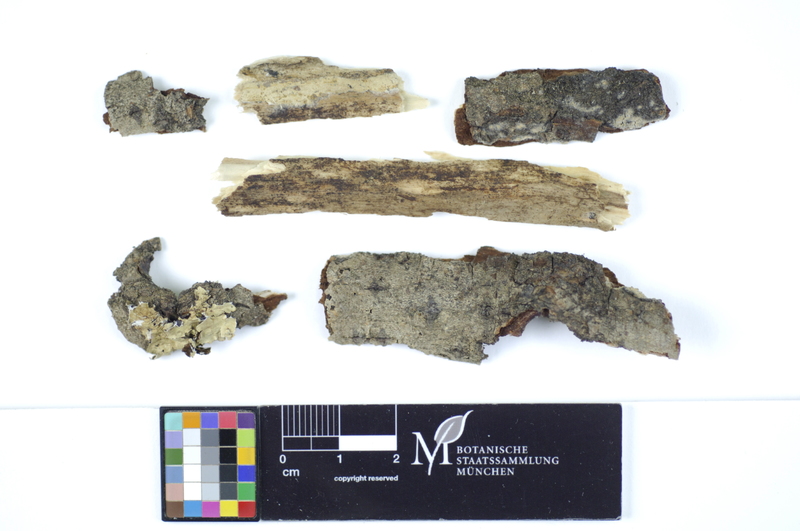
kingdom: Fungi
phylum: Basidiomycota
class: Agaricomycetes
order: Polyporales
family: Hyphodermataceae
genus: Hyphoderma
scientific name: Hyphoderma medioburiense
